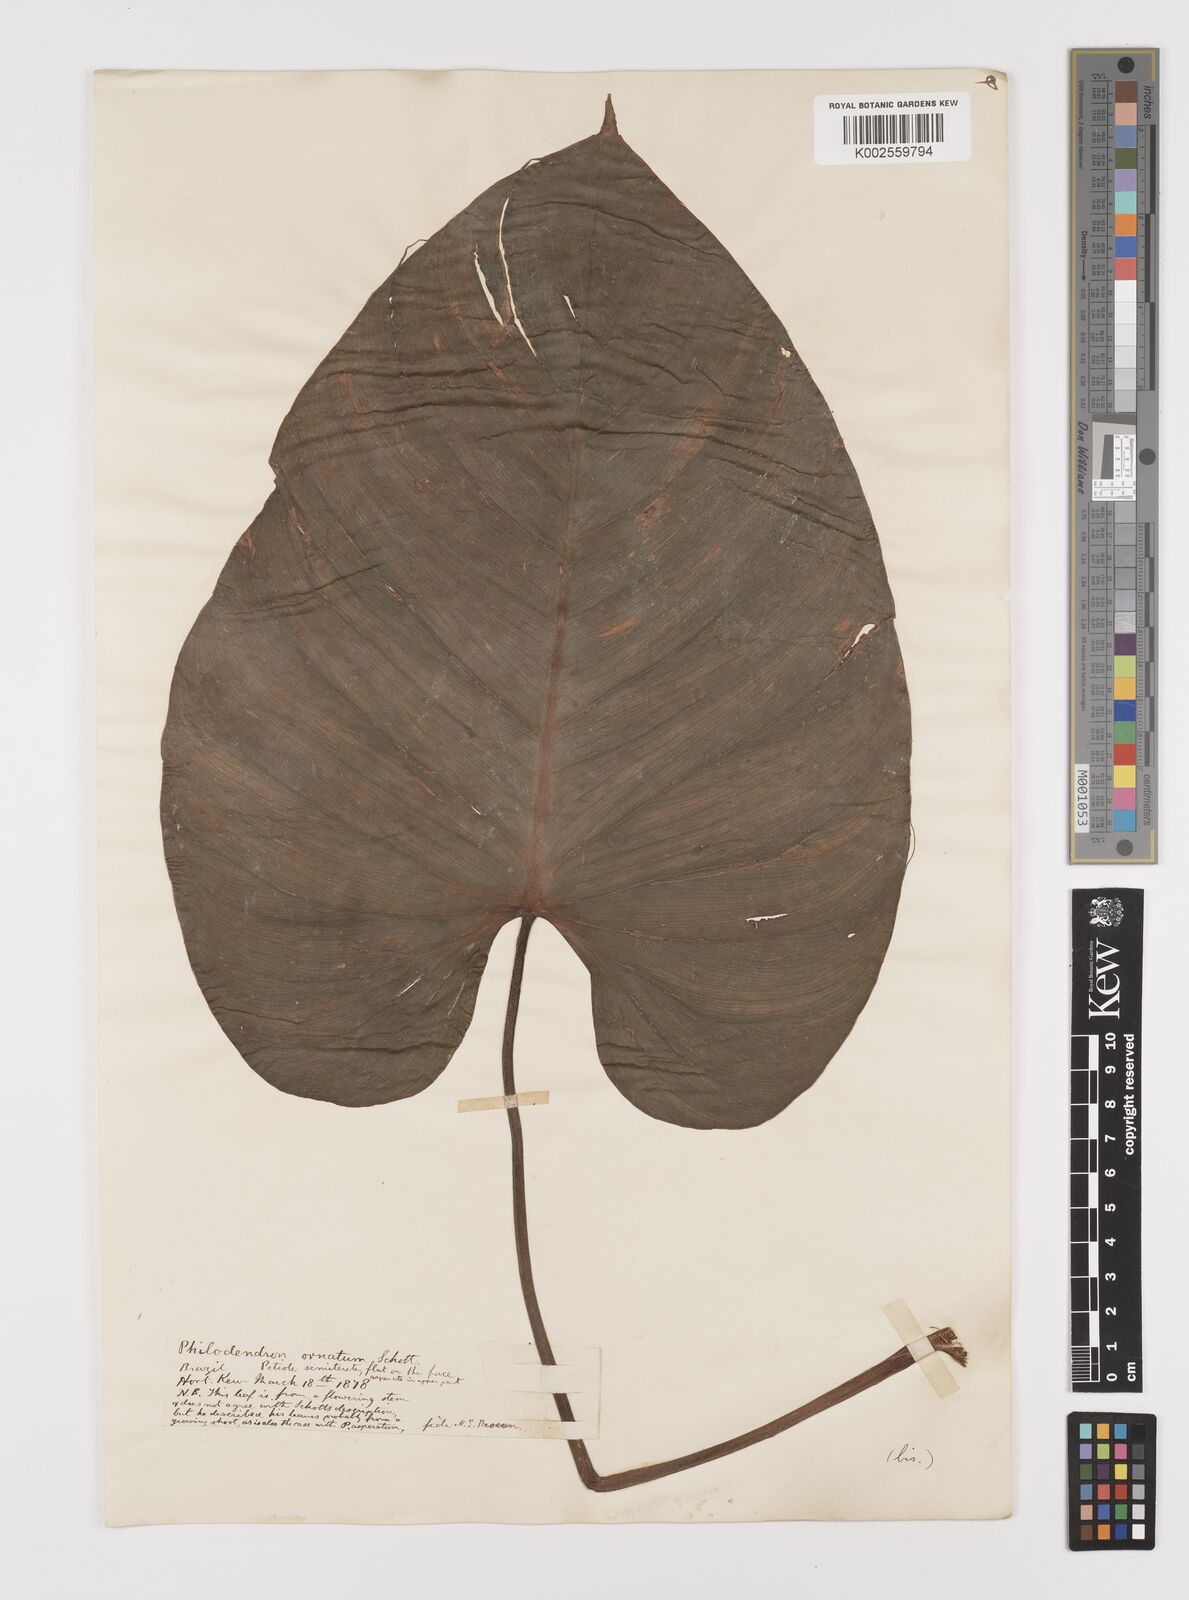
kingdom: Plantae
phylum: Tracheophyta
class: Liliopsida
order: Alismatales
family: Araceae
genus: Philodendron
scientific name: Philodendron ornatum
